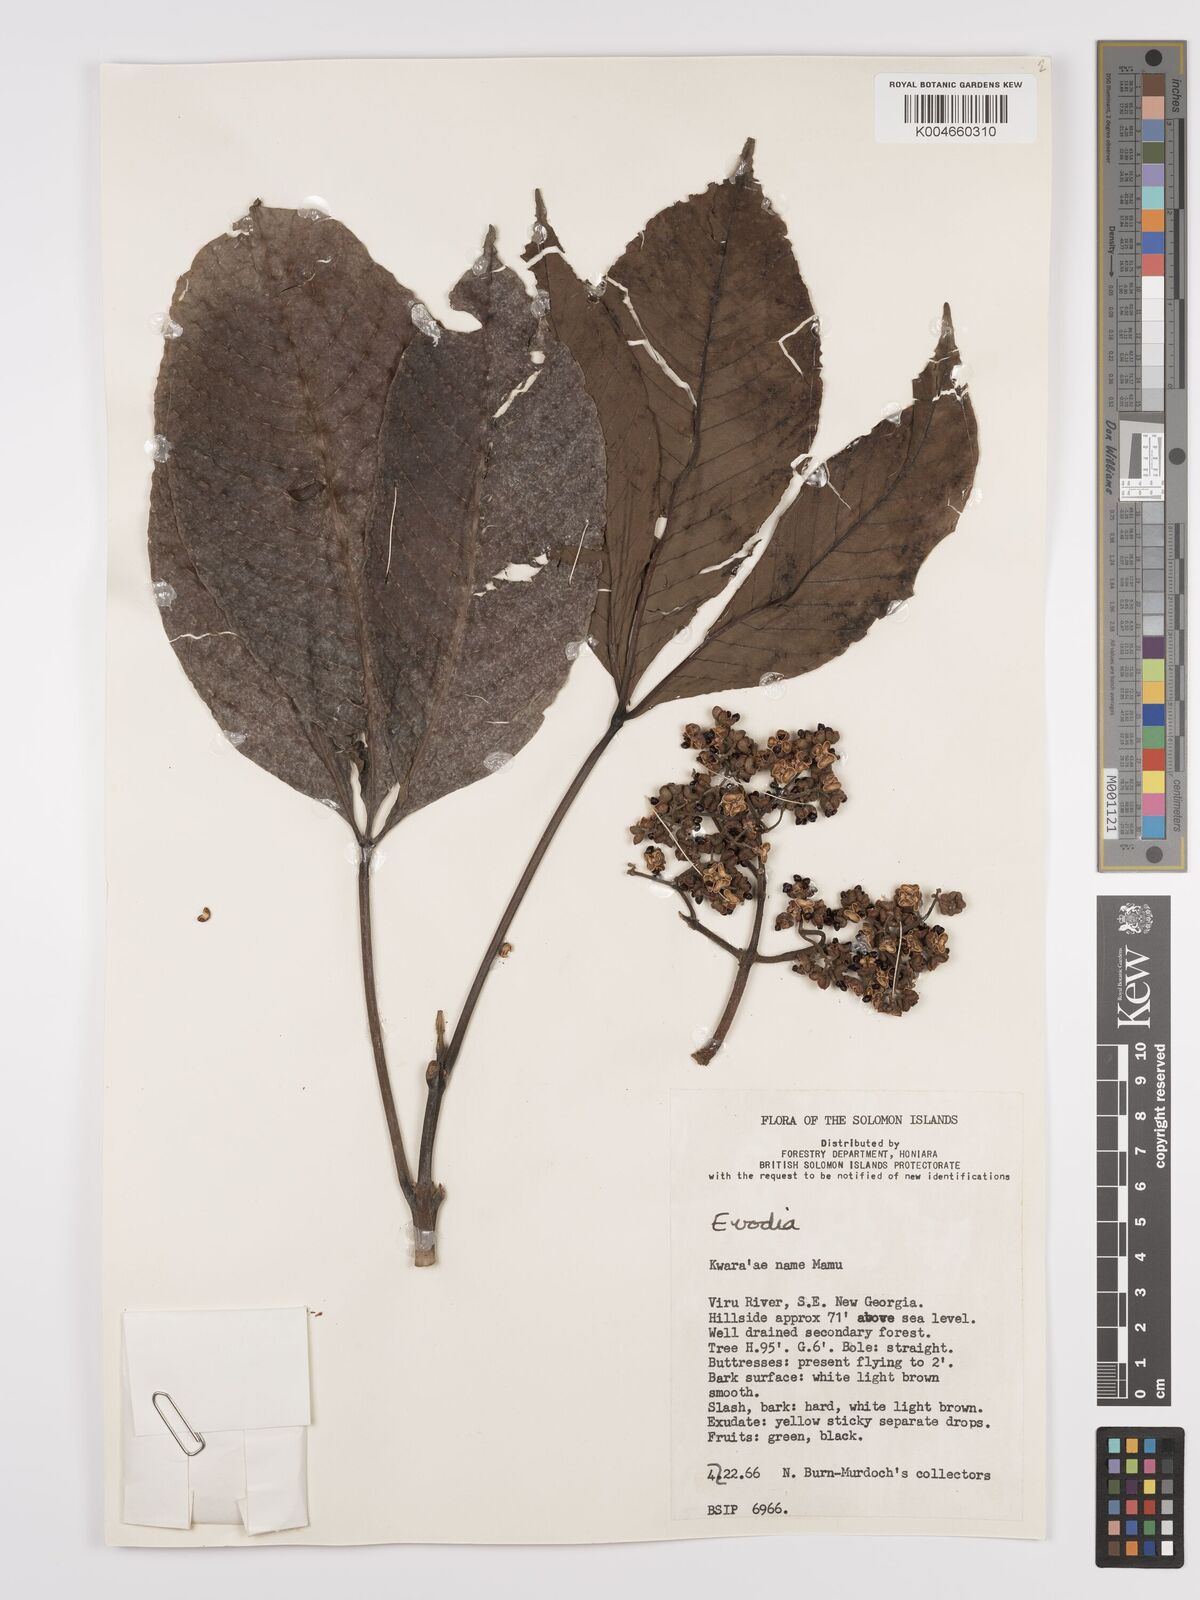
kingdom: Plantae
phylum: Tracheophyta
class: Magnoliopsida
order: Sapindales
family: Rutaceae
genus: Euodia
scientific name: Euodia
